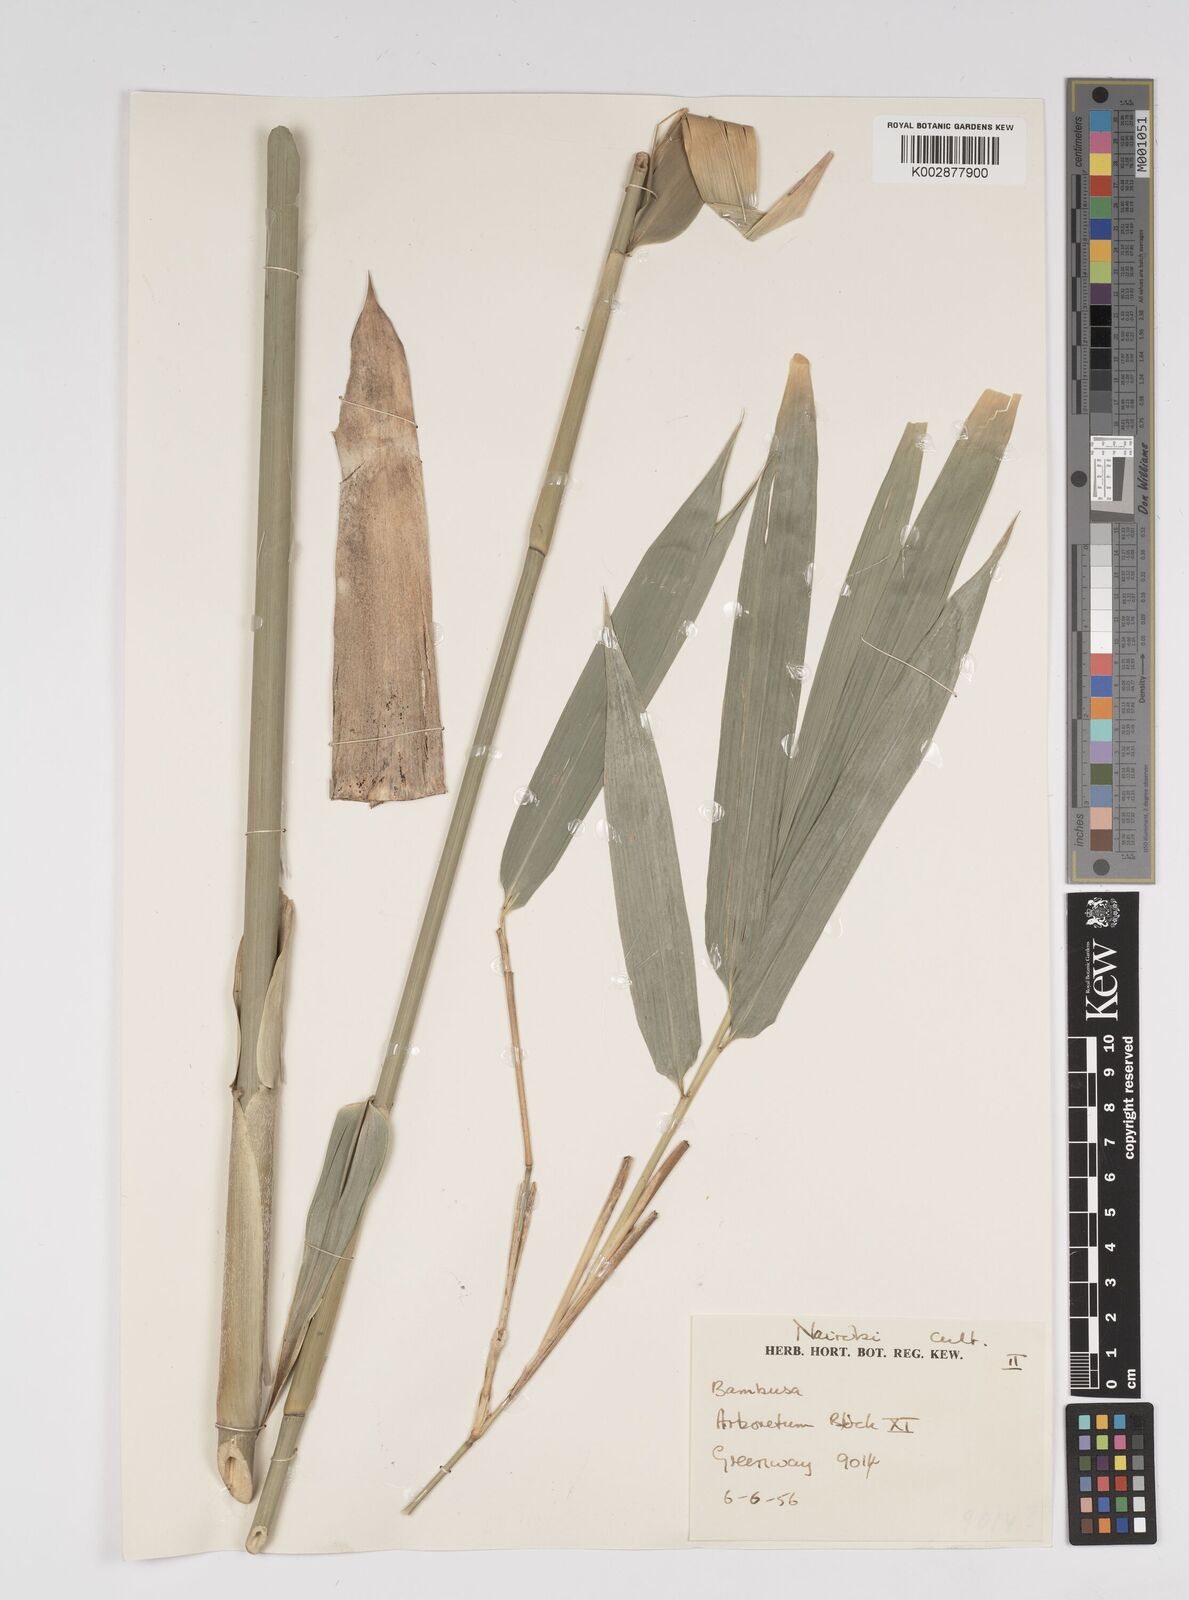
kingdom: Plantae
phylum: Tracheophyta
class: Liliopsida
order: Poales
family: Poaceae
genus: Bambusa
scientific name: Bambusa
